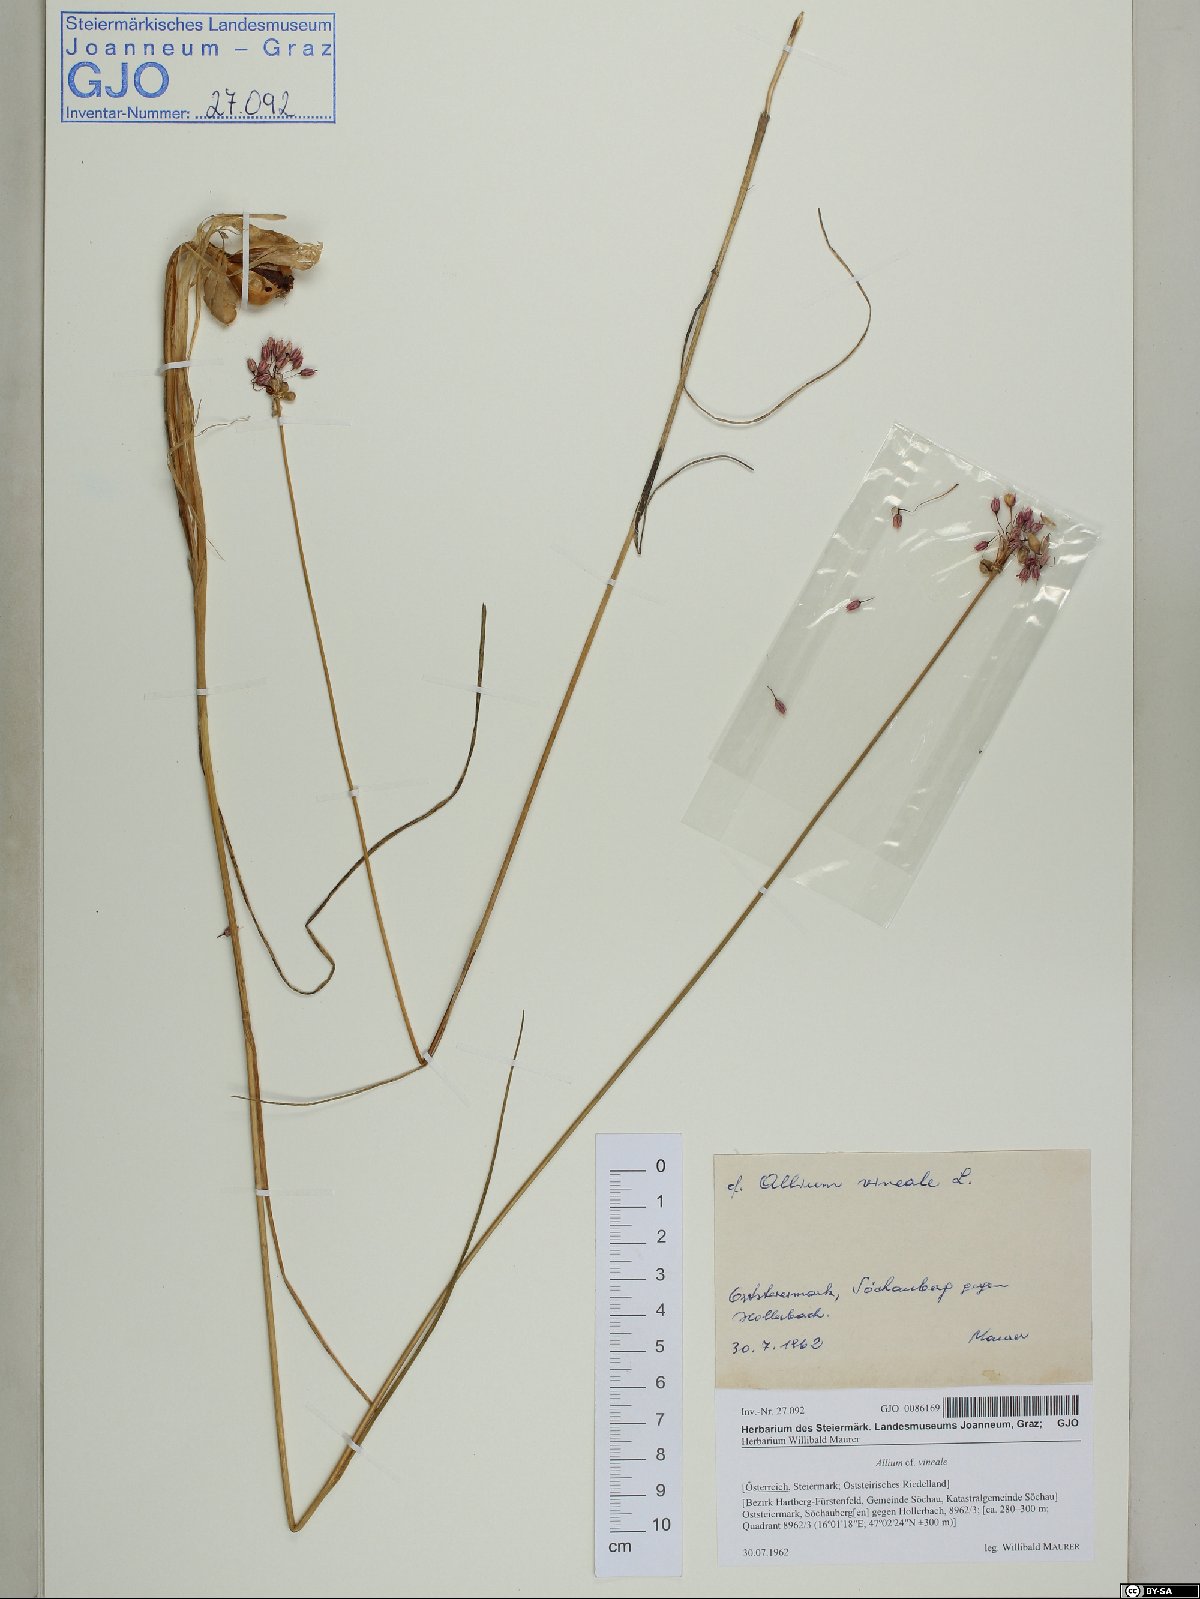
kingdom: Plantae
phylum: Tracheophyta
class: Liliopsida
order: Asparagales
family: Amaryllidaceae
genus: Allium
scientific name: Allium vineale
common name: Crow garlic
